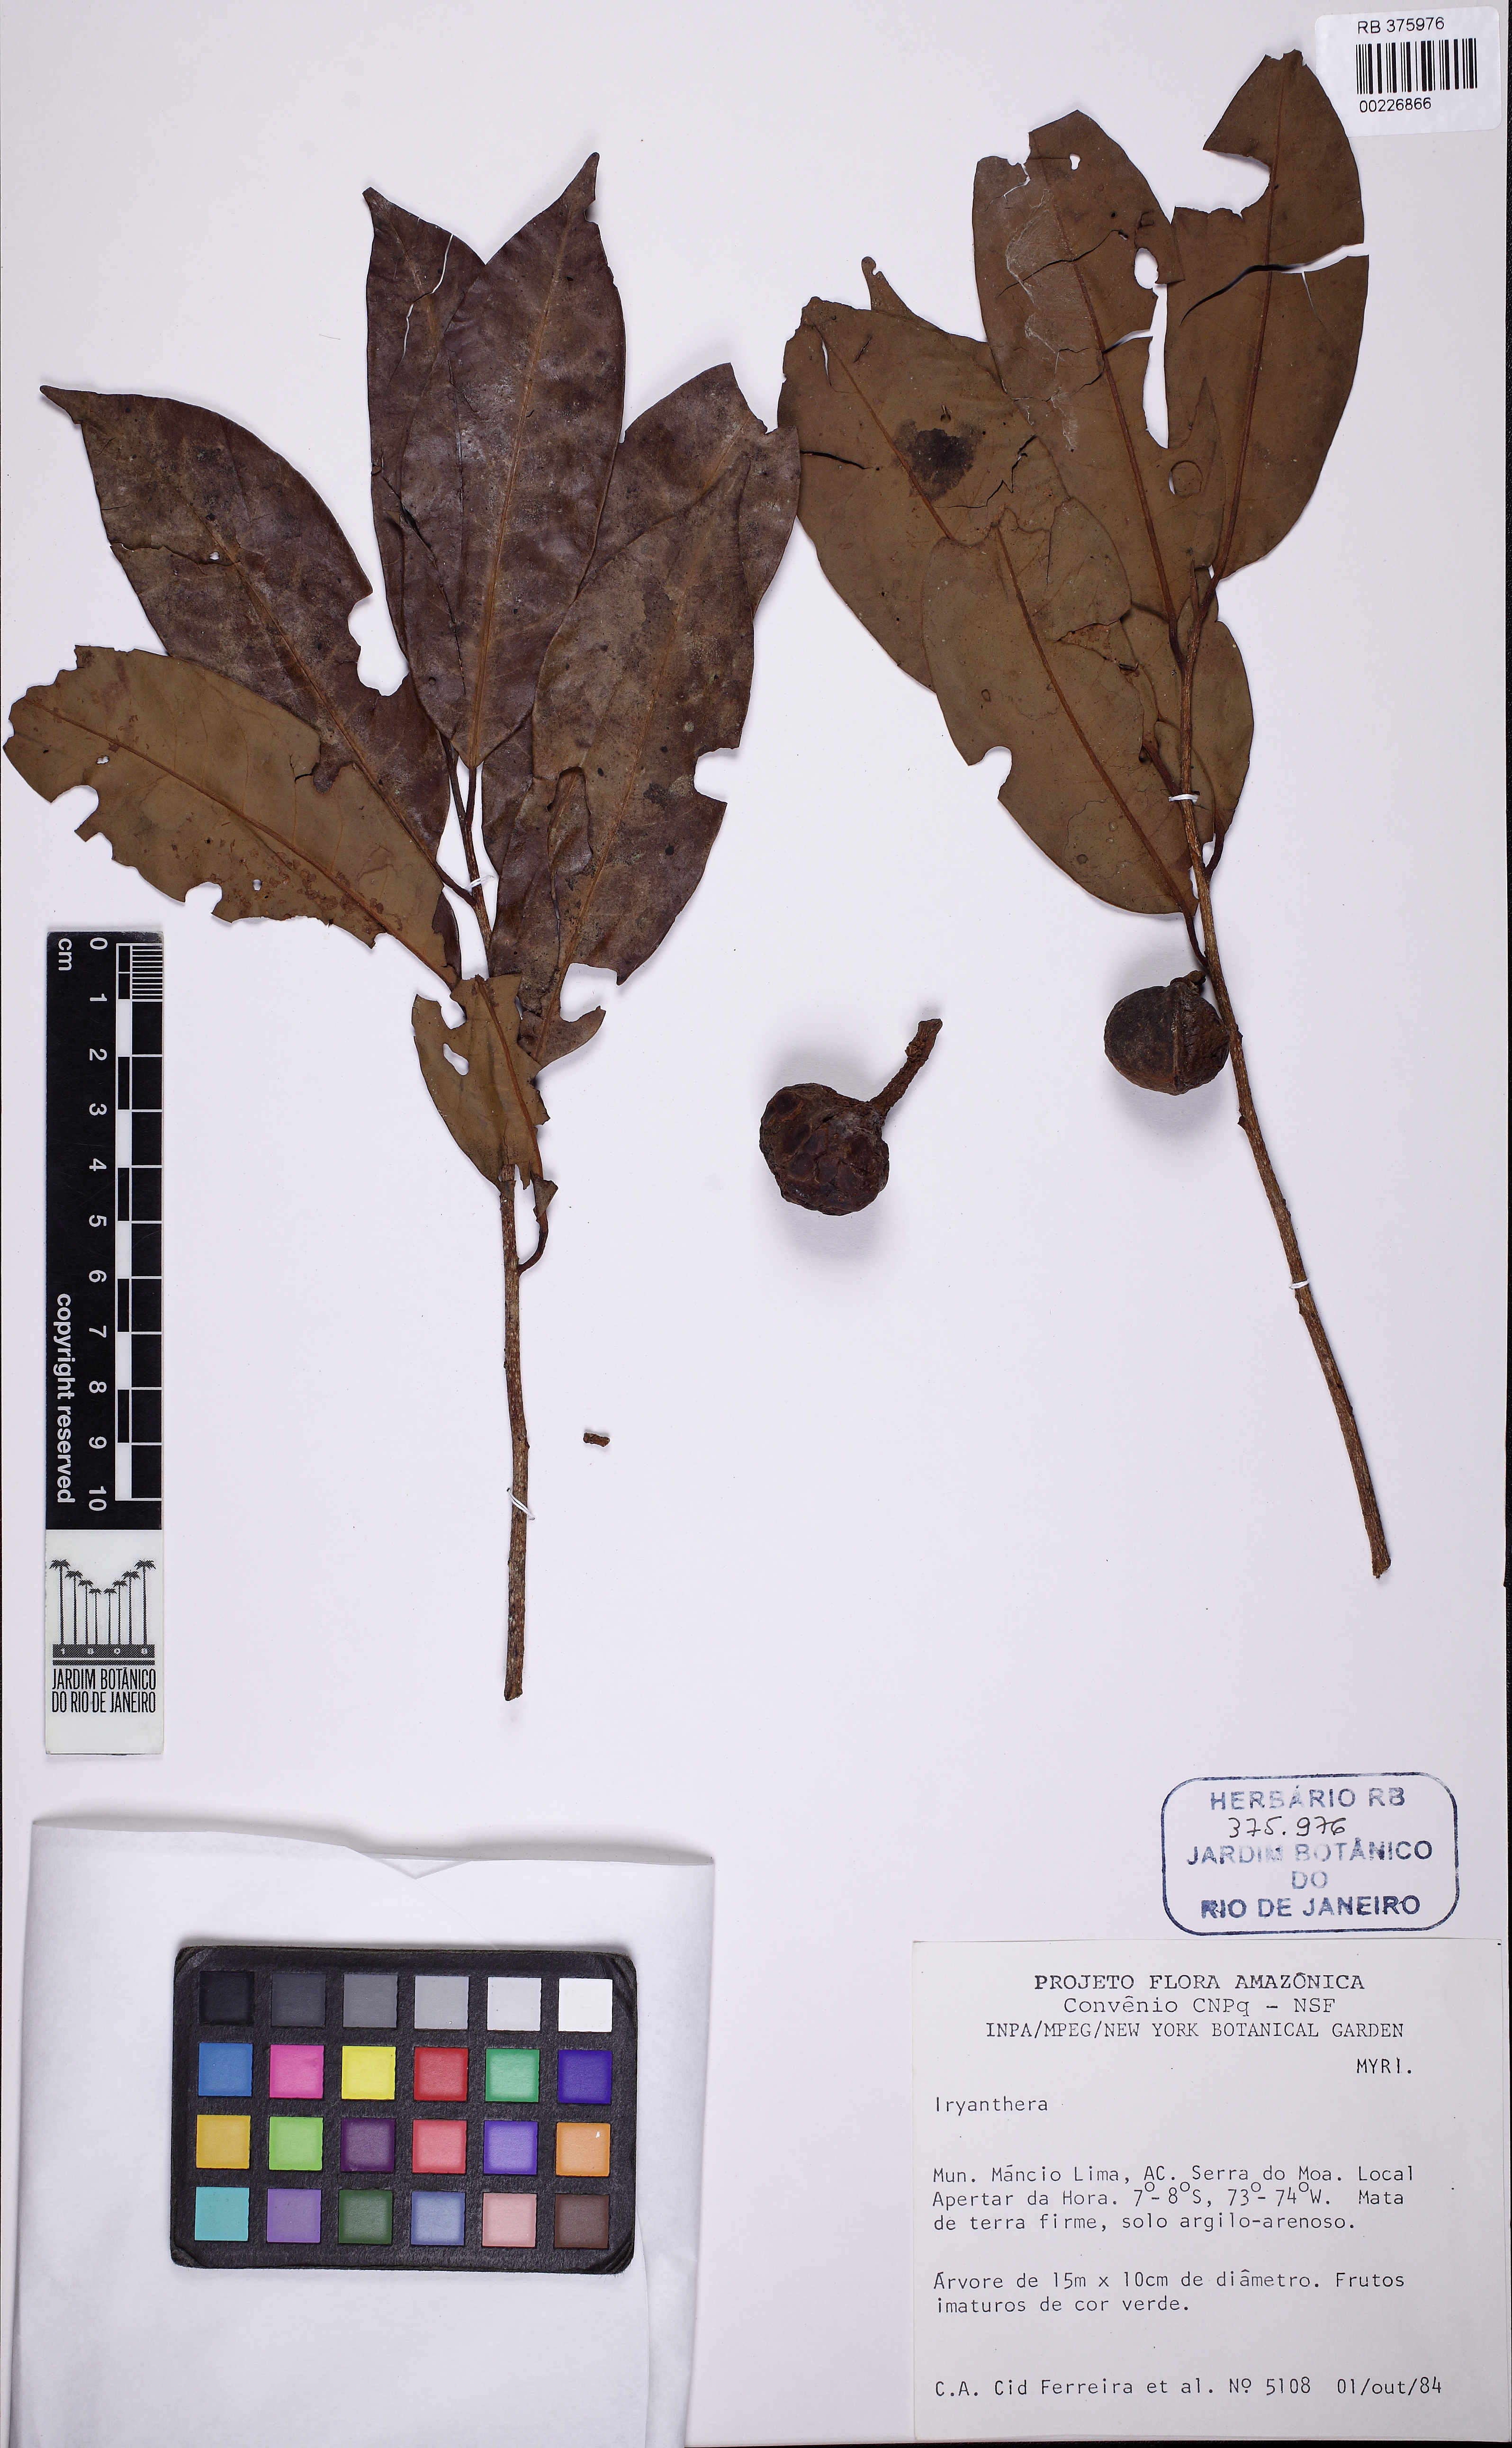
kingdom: Plantae
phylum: Tracheophyta
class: Magnoliopsida
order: Magnoliales
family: Myristicaceae
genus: Iryanthera
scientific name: Iryanthera laevis
